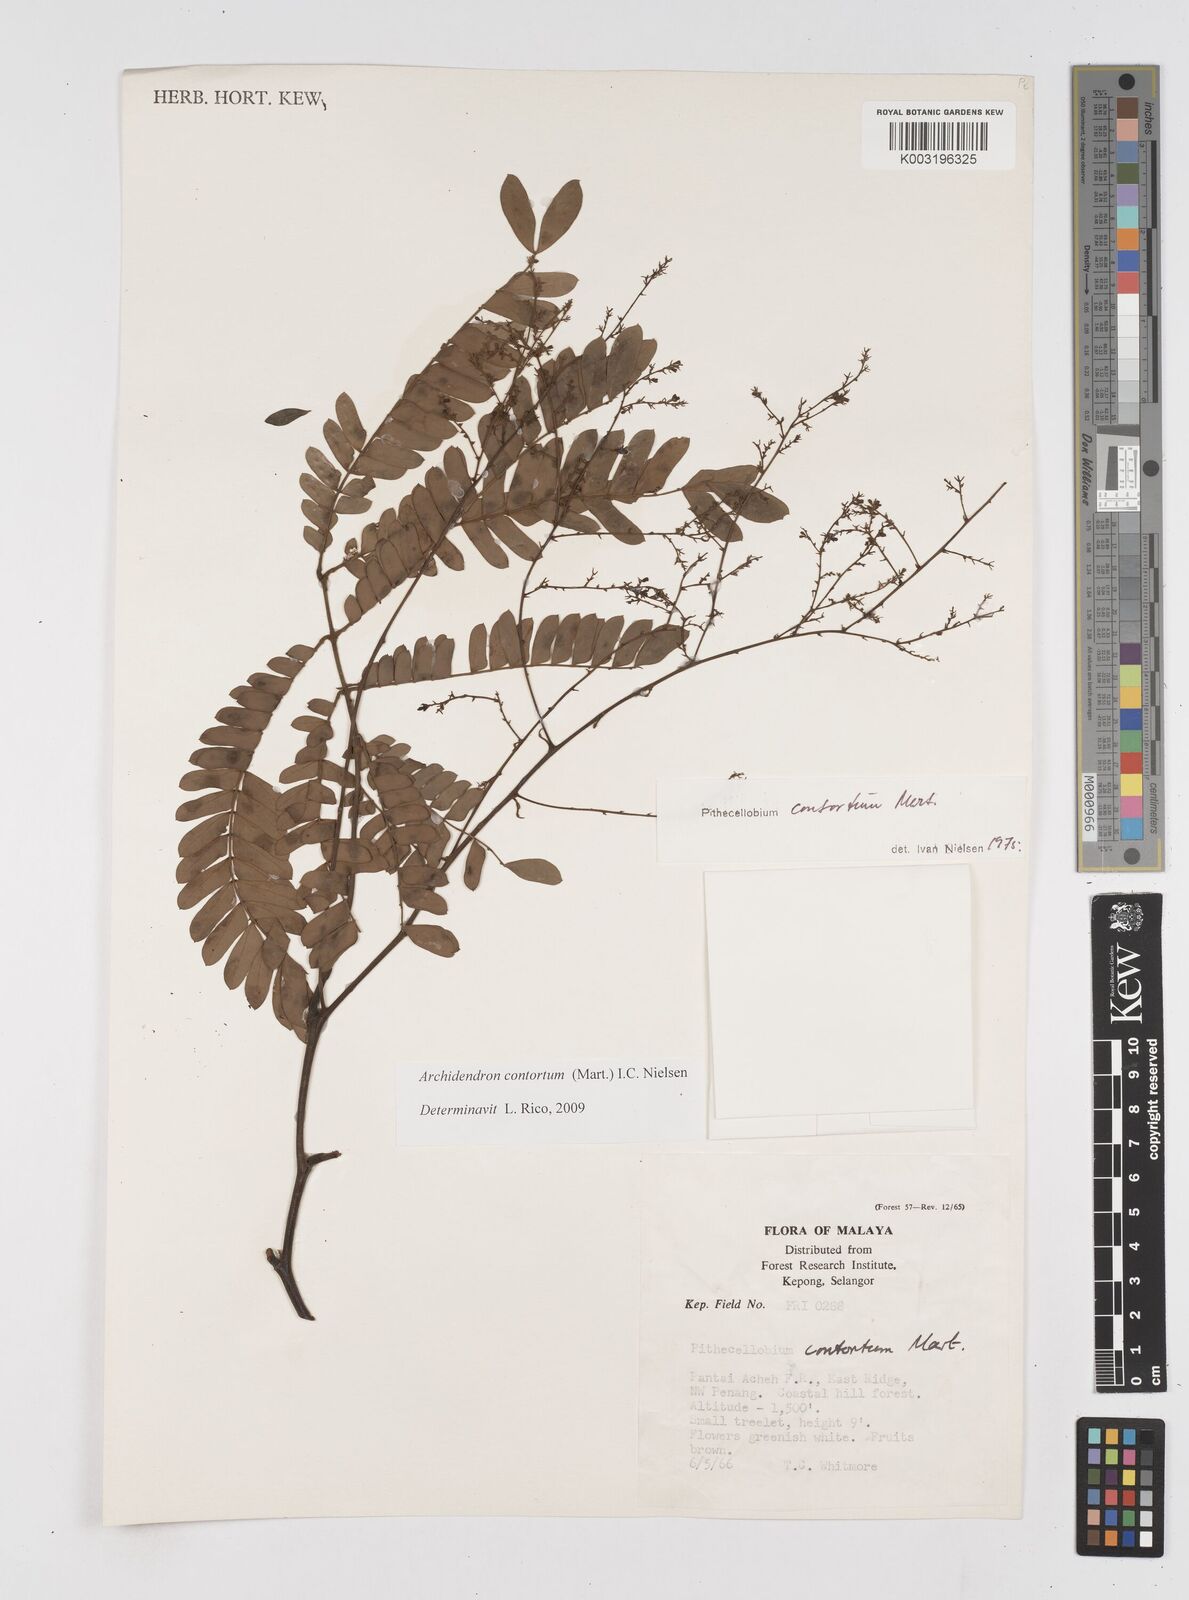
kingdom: Plantae
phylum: Tracheophyta
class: Magnoliopsida
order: Fabales
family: Fabaceae
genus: Archidendron
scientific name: Archidendron contortum
